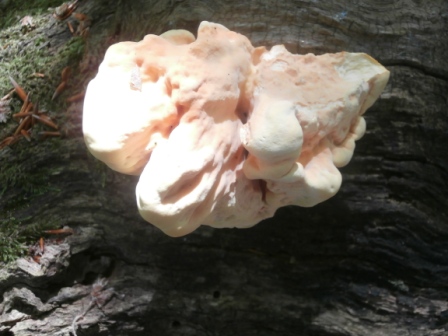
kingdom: Fungi
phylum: Basidiomycota
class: Agaricomycetes
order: Polyporales
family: Laetiporaceae
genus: Laetiporus
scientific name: Laetiporus sulphureus
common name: svovlporesvamp
